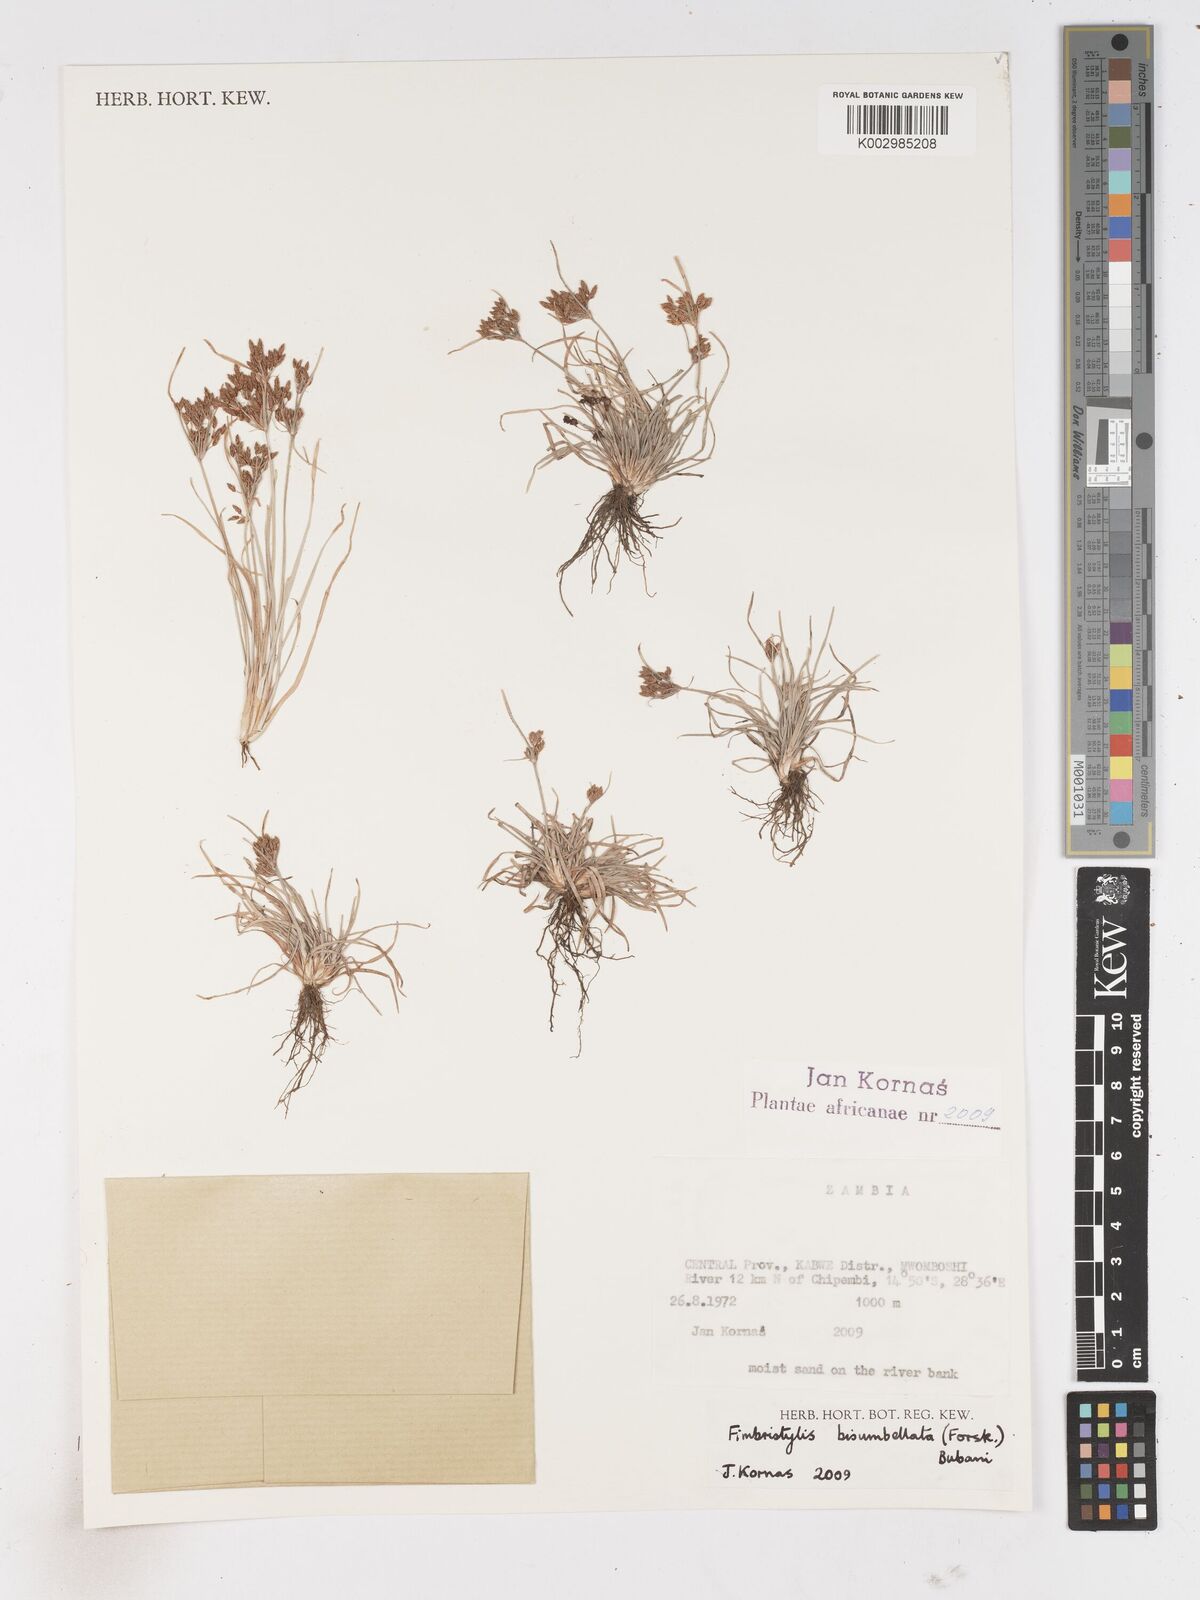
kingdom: Plantae
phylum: Tracheophyta
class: Liliopsida
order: Poales
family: Cyperaceae
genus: Fimbristylis
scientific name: Fimbristylis bisumbellata
